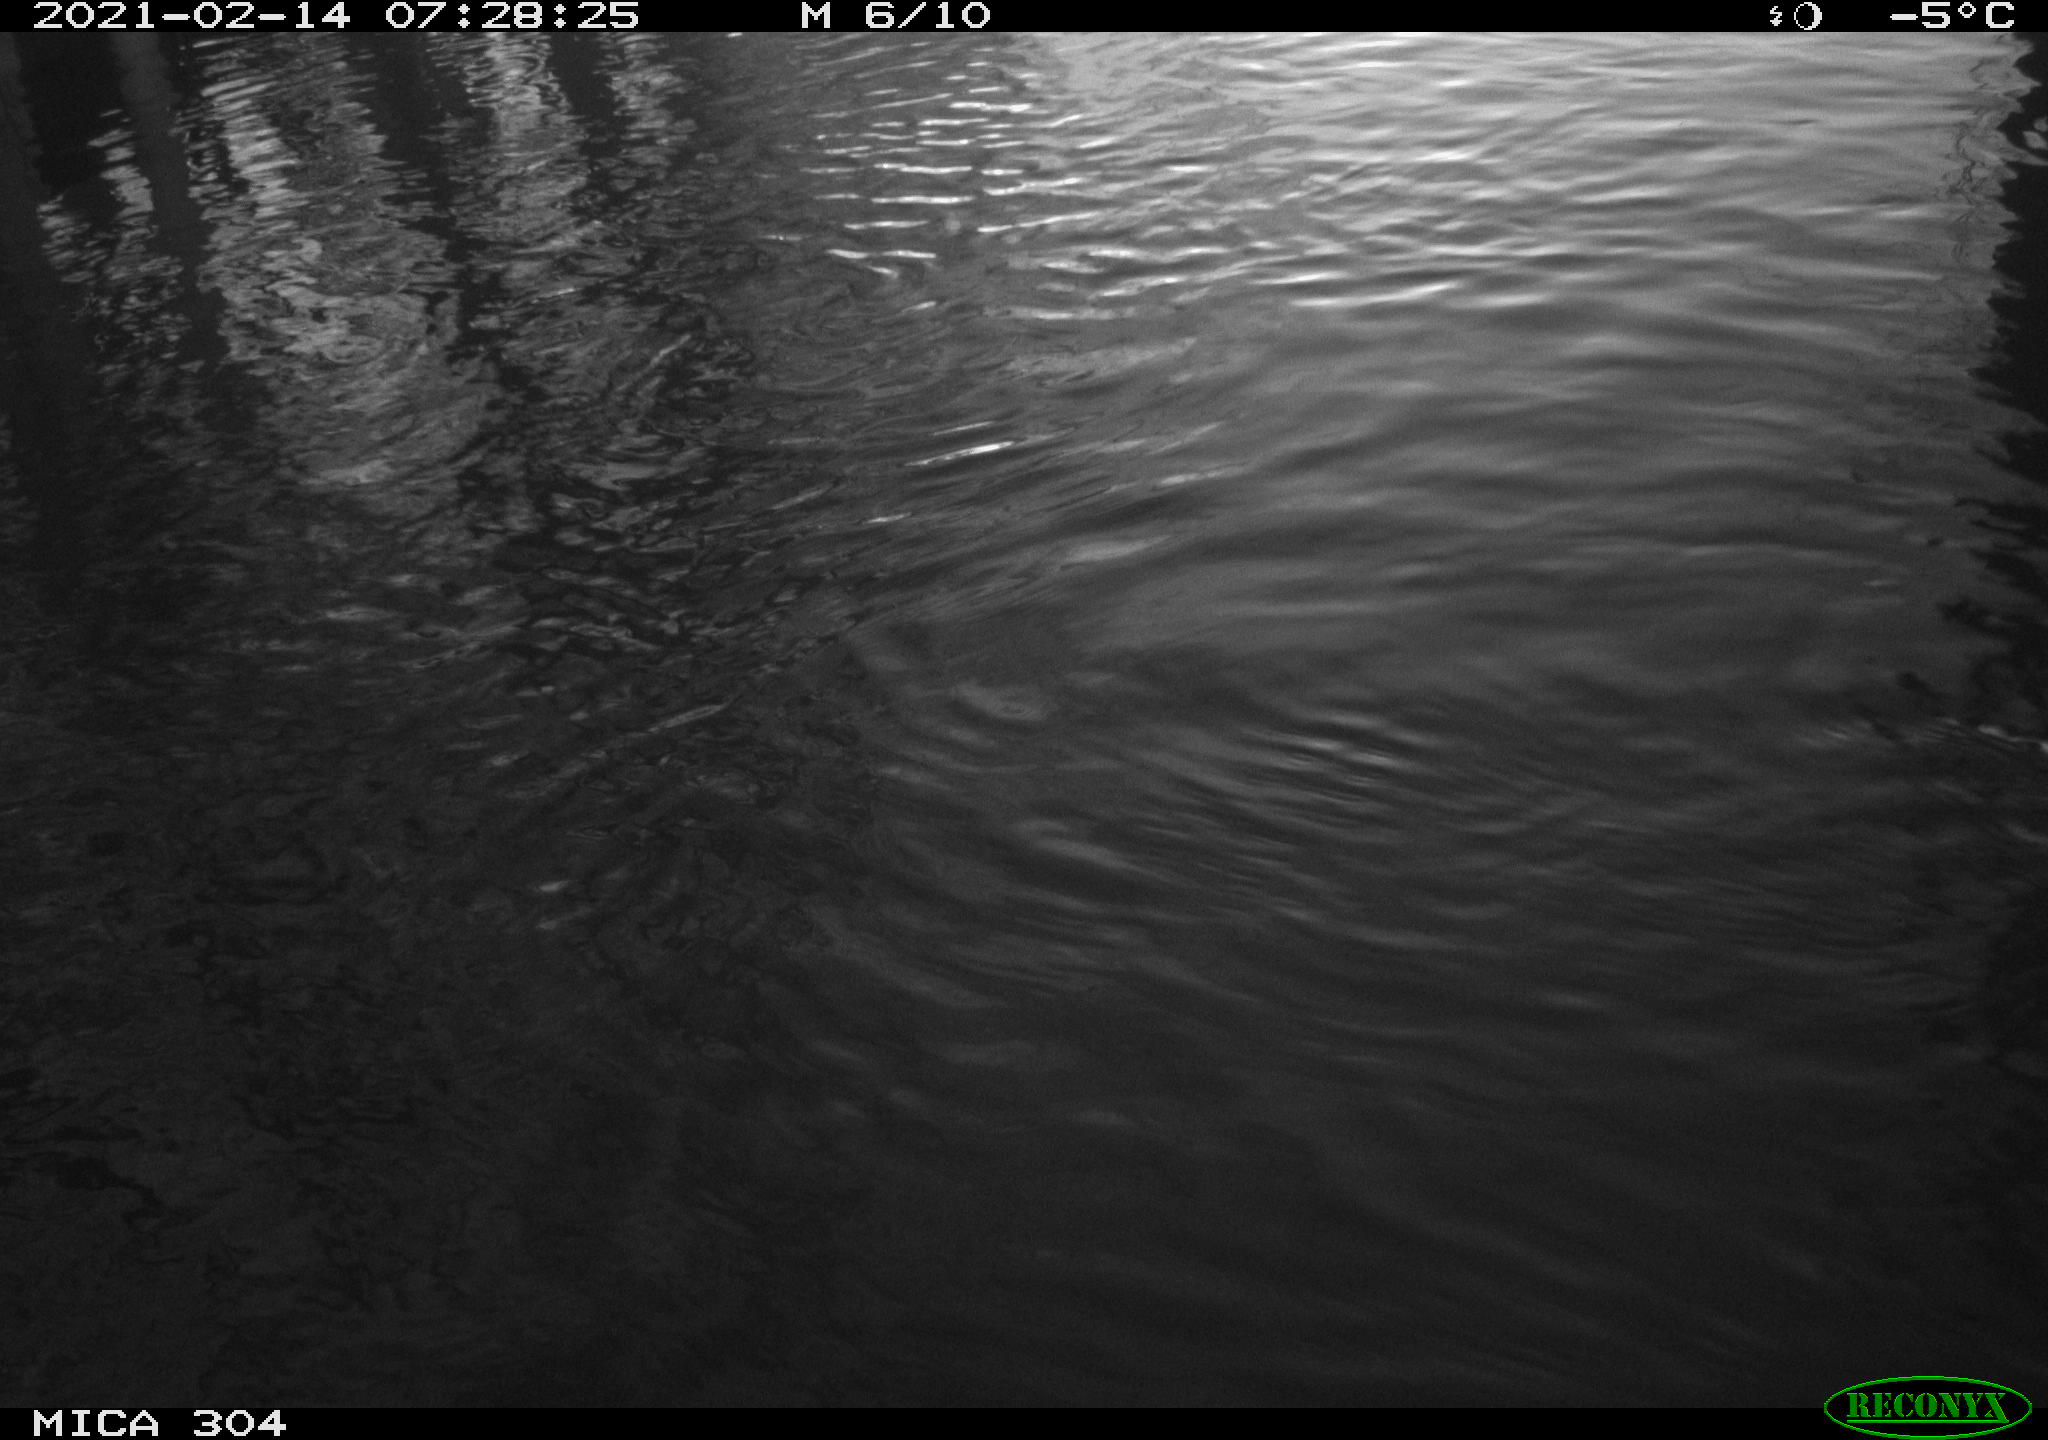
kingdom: Animalia
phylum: Chordata
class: Aves
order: Anseriformes
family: Anatidae
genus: Anas
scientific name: Anas platyrhynchos
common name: Mallard
